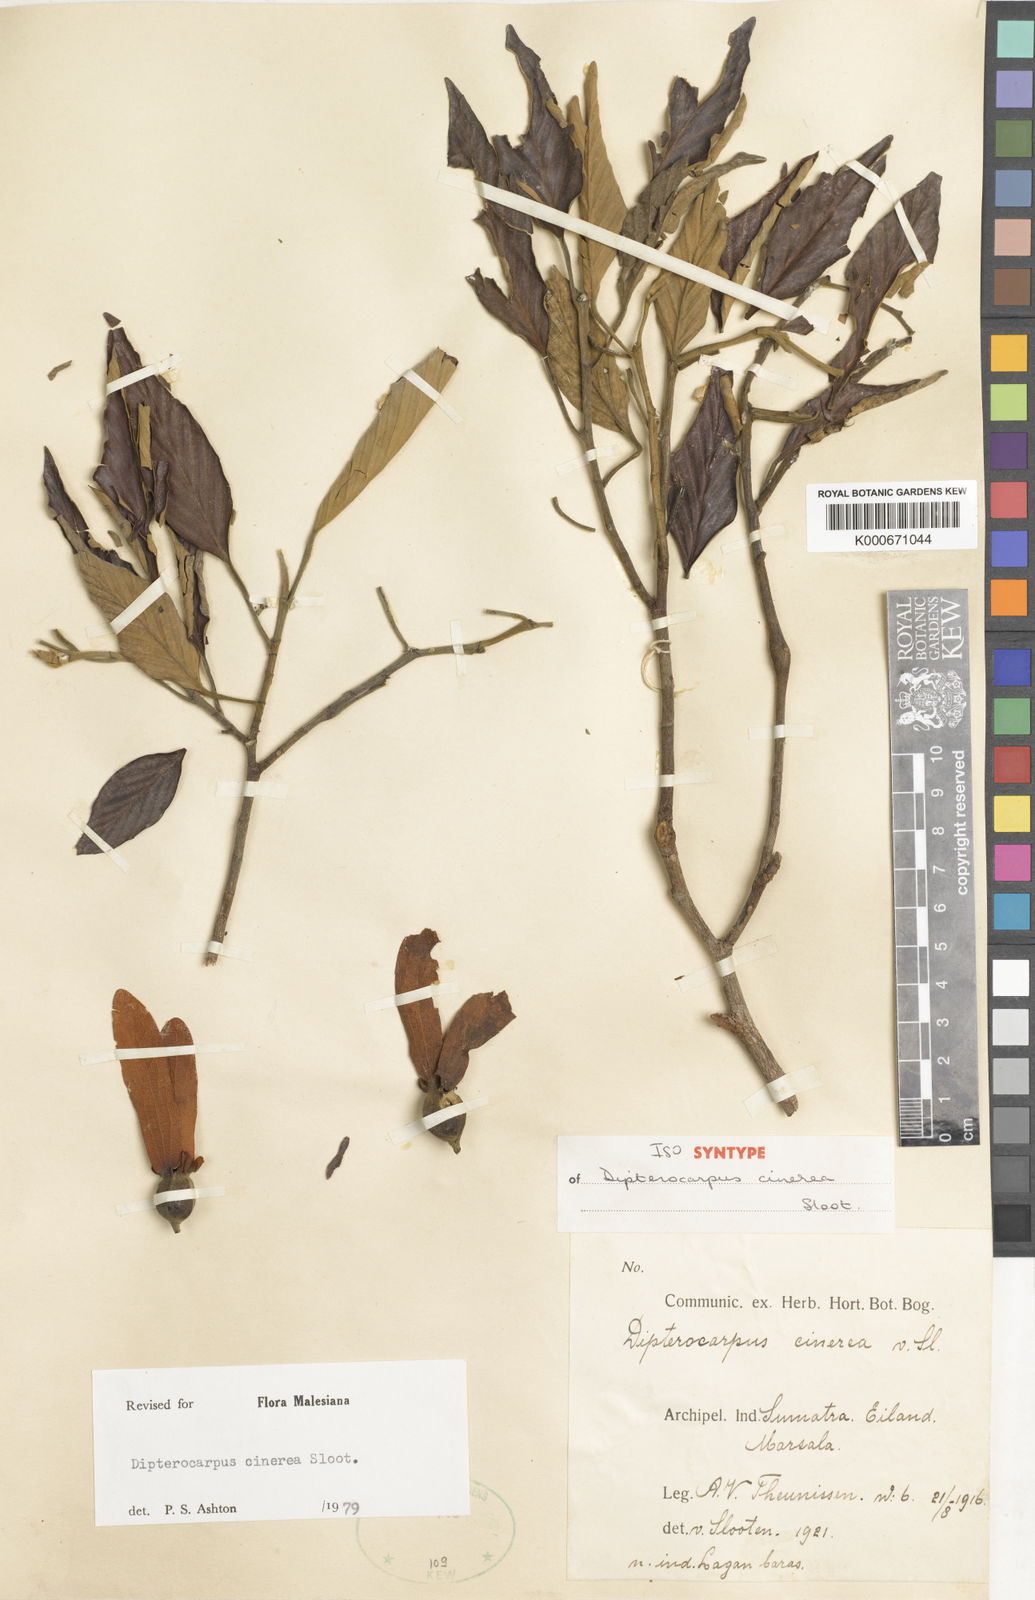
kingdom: Plantae
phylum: Tracheophyta
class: Magnoliopsida
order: Malvales
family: Dipterocarpaceae
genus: Dipterocarpus
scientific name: Dipterocarpus cinereus
